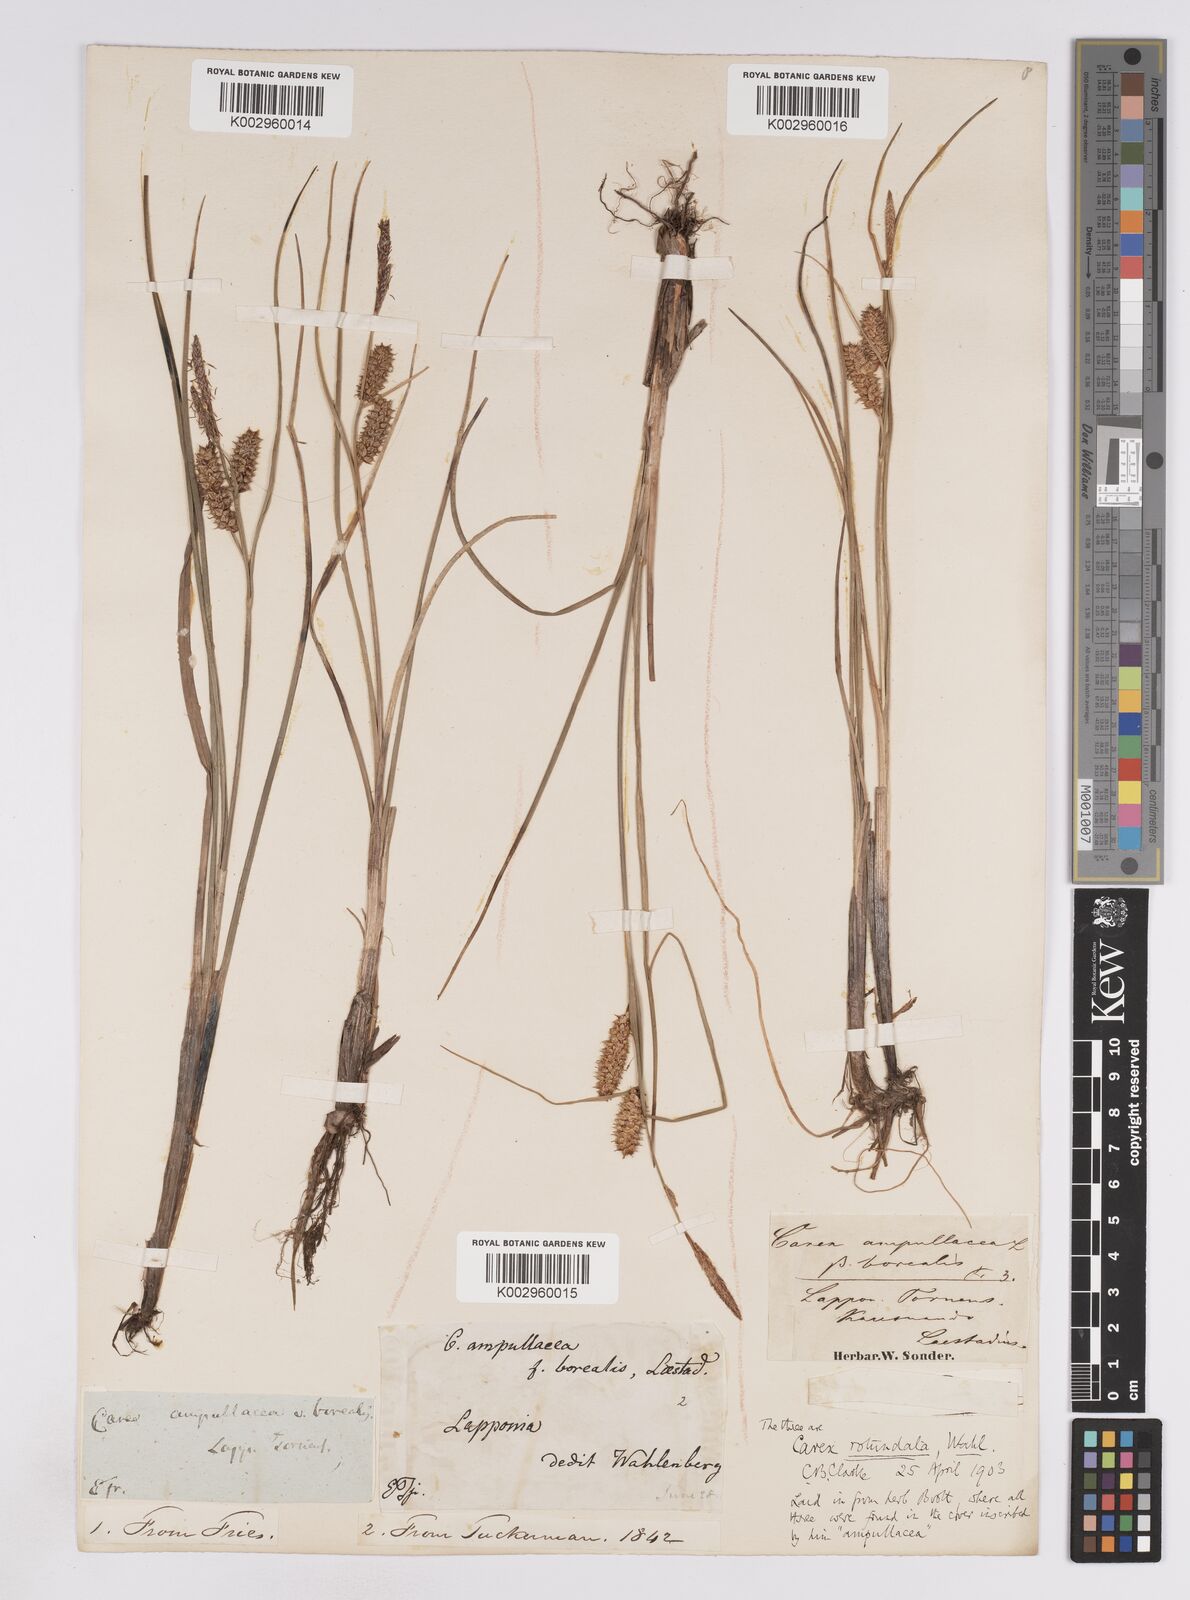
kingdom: Plantae
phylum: Tracheophyta
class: Liliopsida
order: Poales
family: Cyperaceae
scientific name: Cyperaceae
